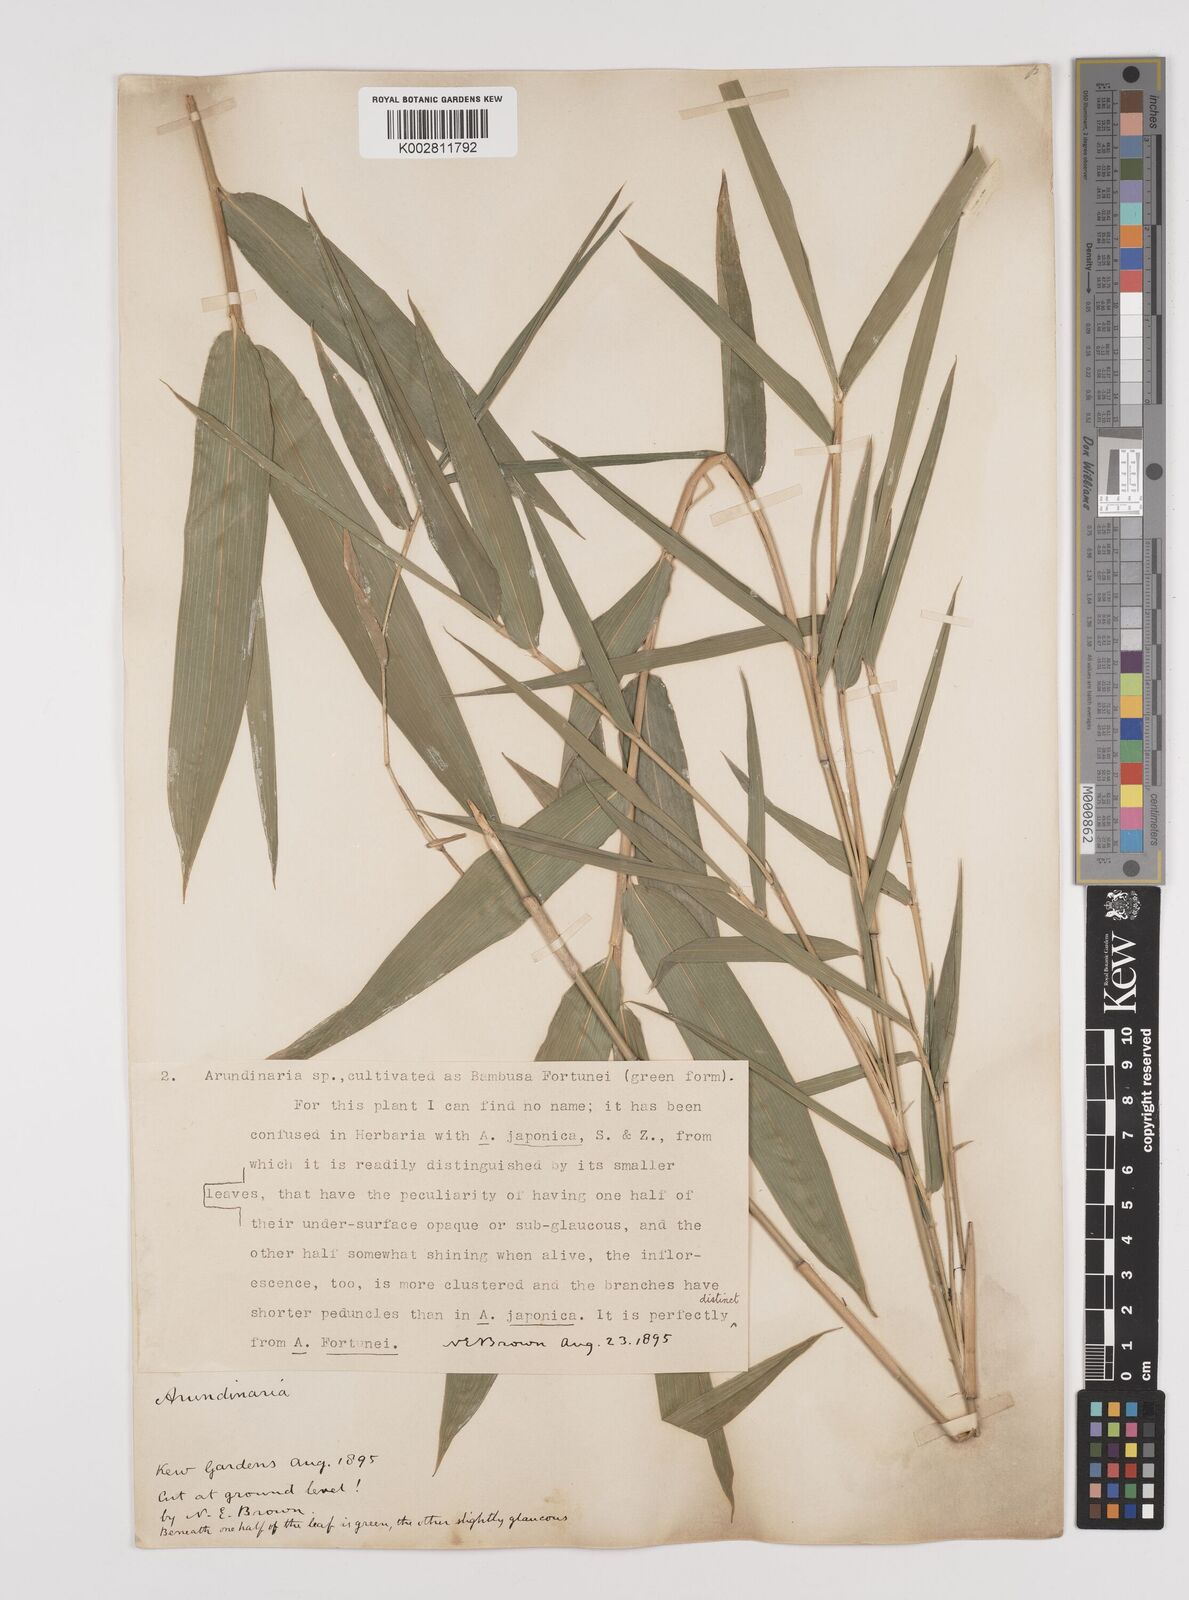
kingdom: Plantae
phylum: Tracheophyta
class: Liliopsida
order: Poales
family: Poaceae
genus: Pseudosasa
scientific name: Pseudosasa humilis
